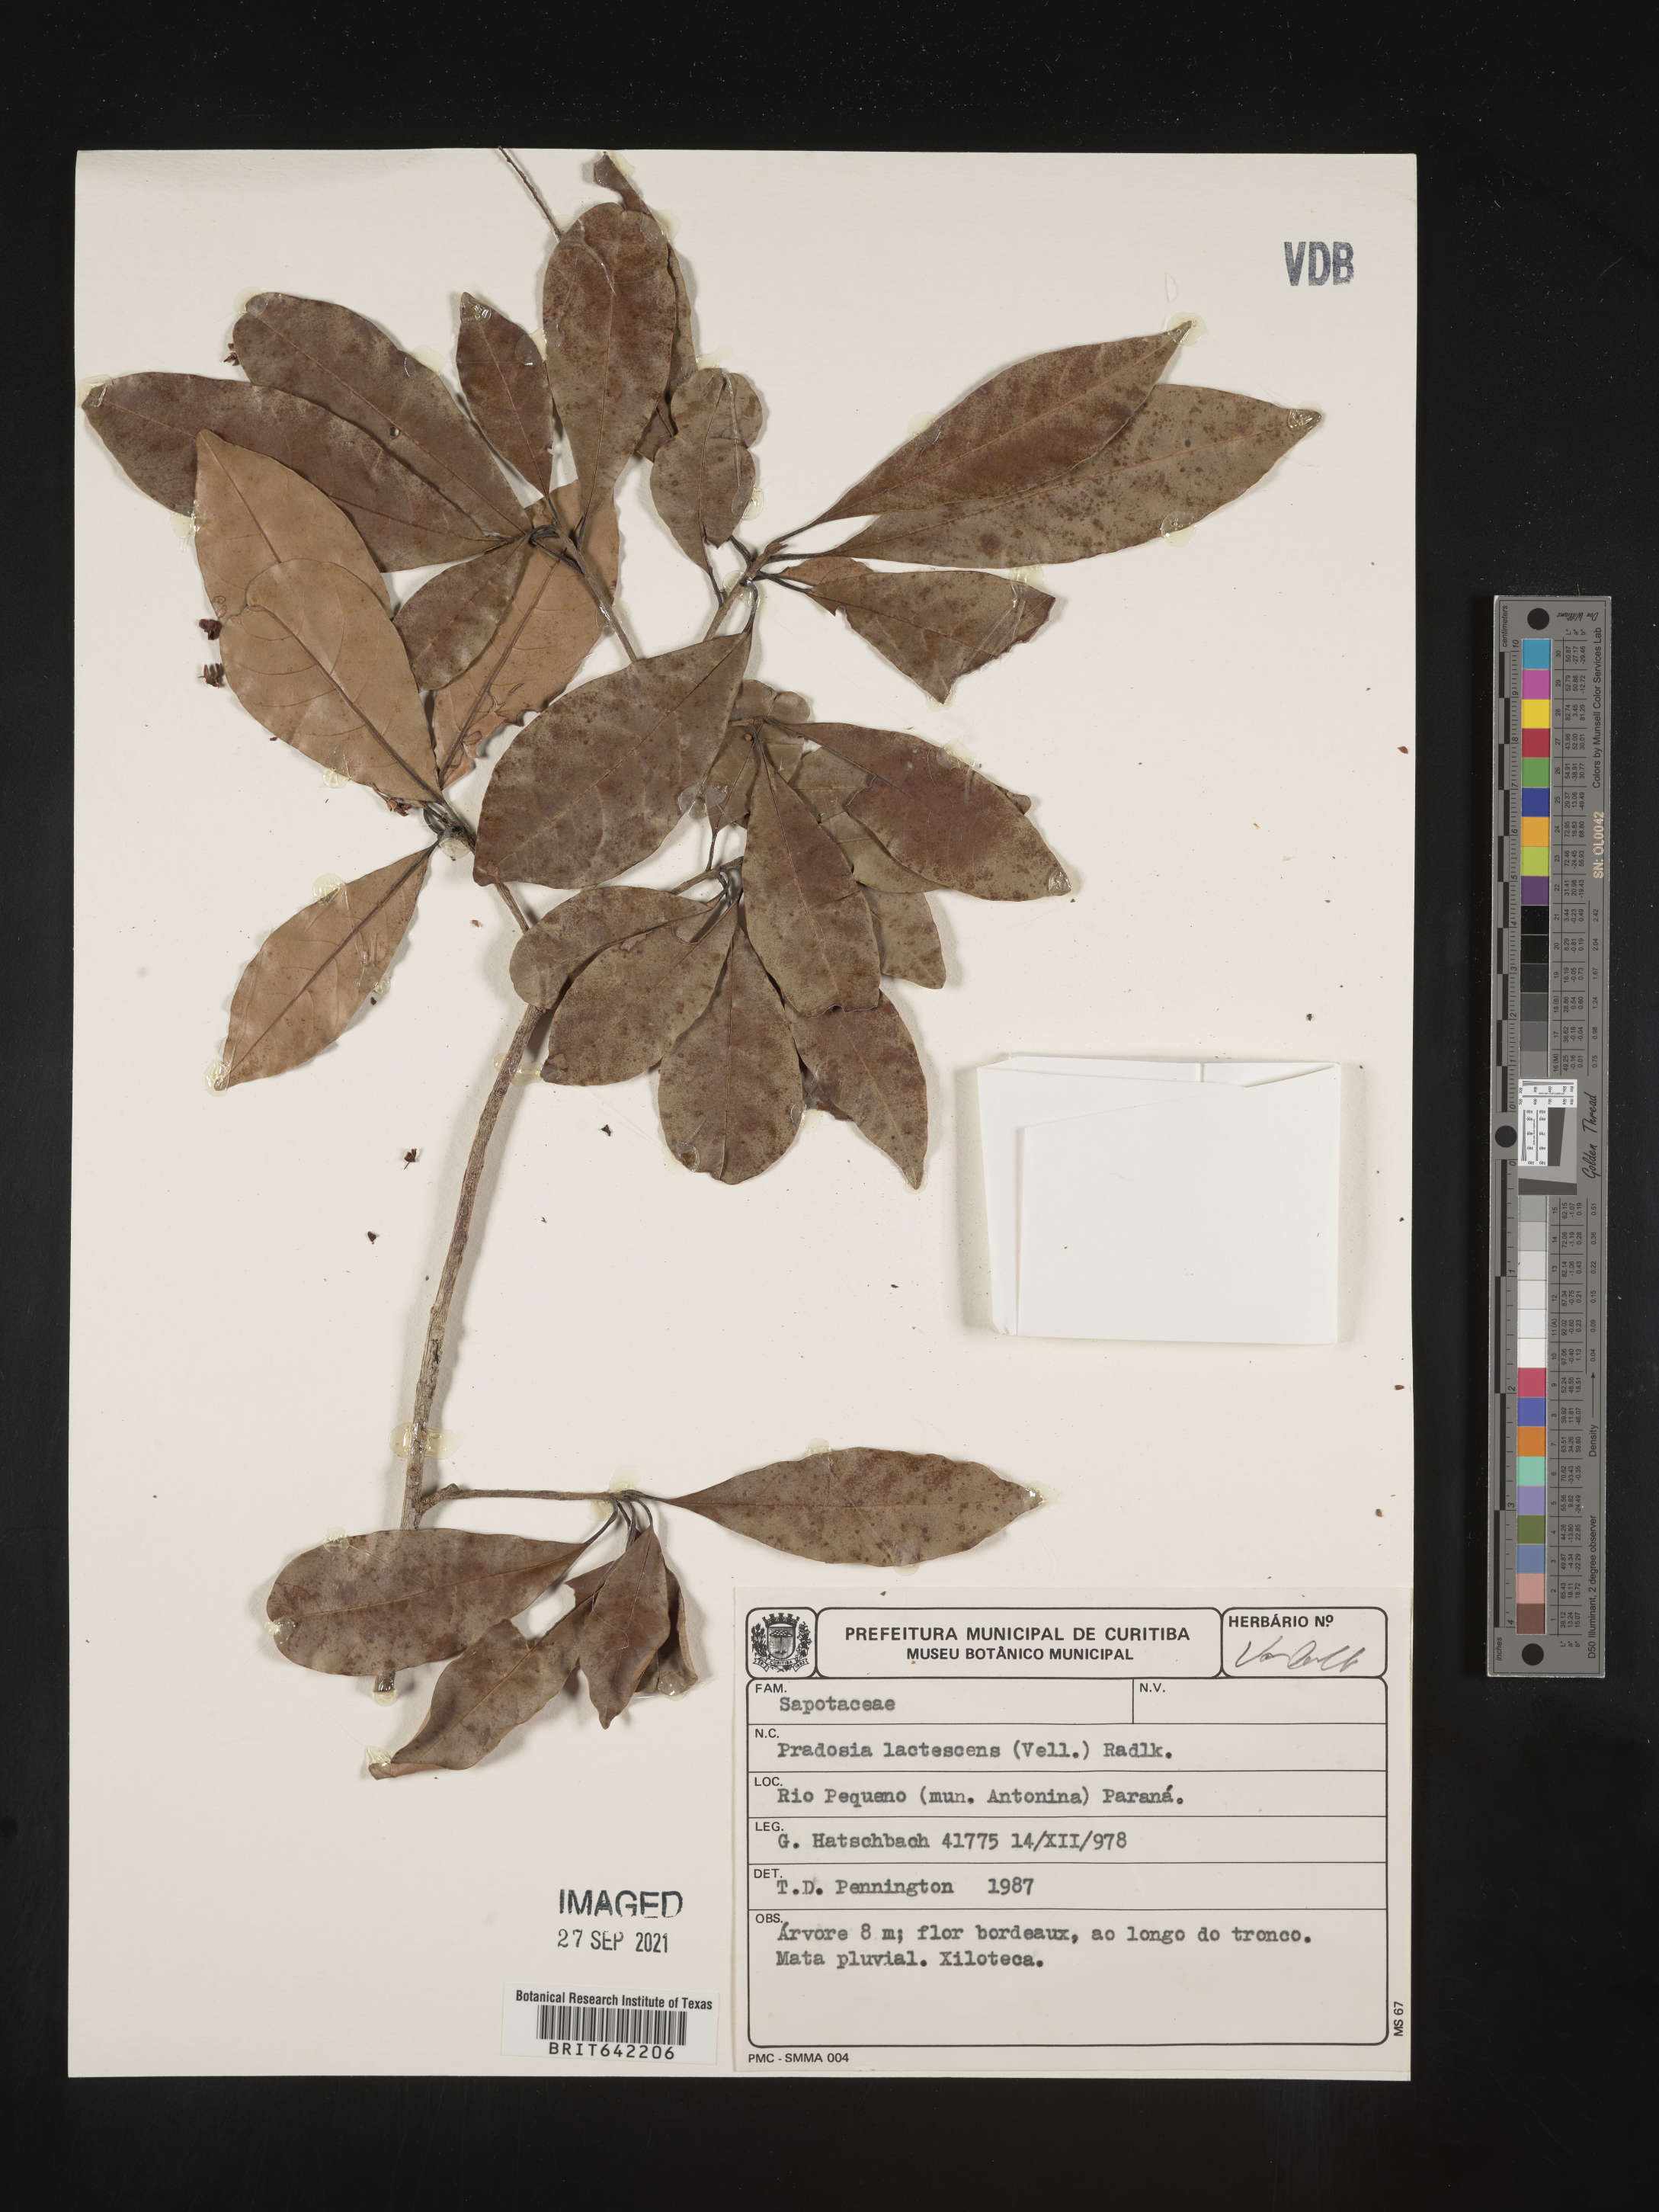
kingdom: Plantae
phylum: Tracheophyta
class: Magnoliopsida
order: Ericales
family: Sapotaceae
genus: Pradosia
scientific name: Pradosia
